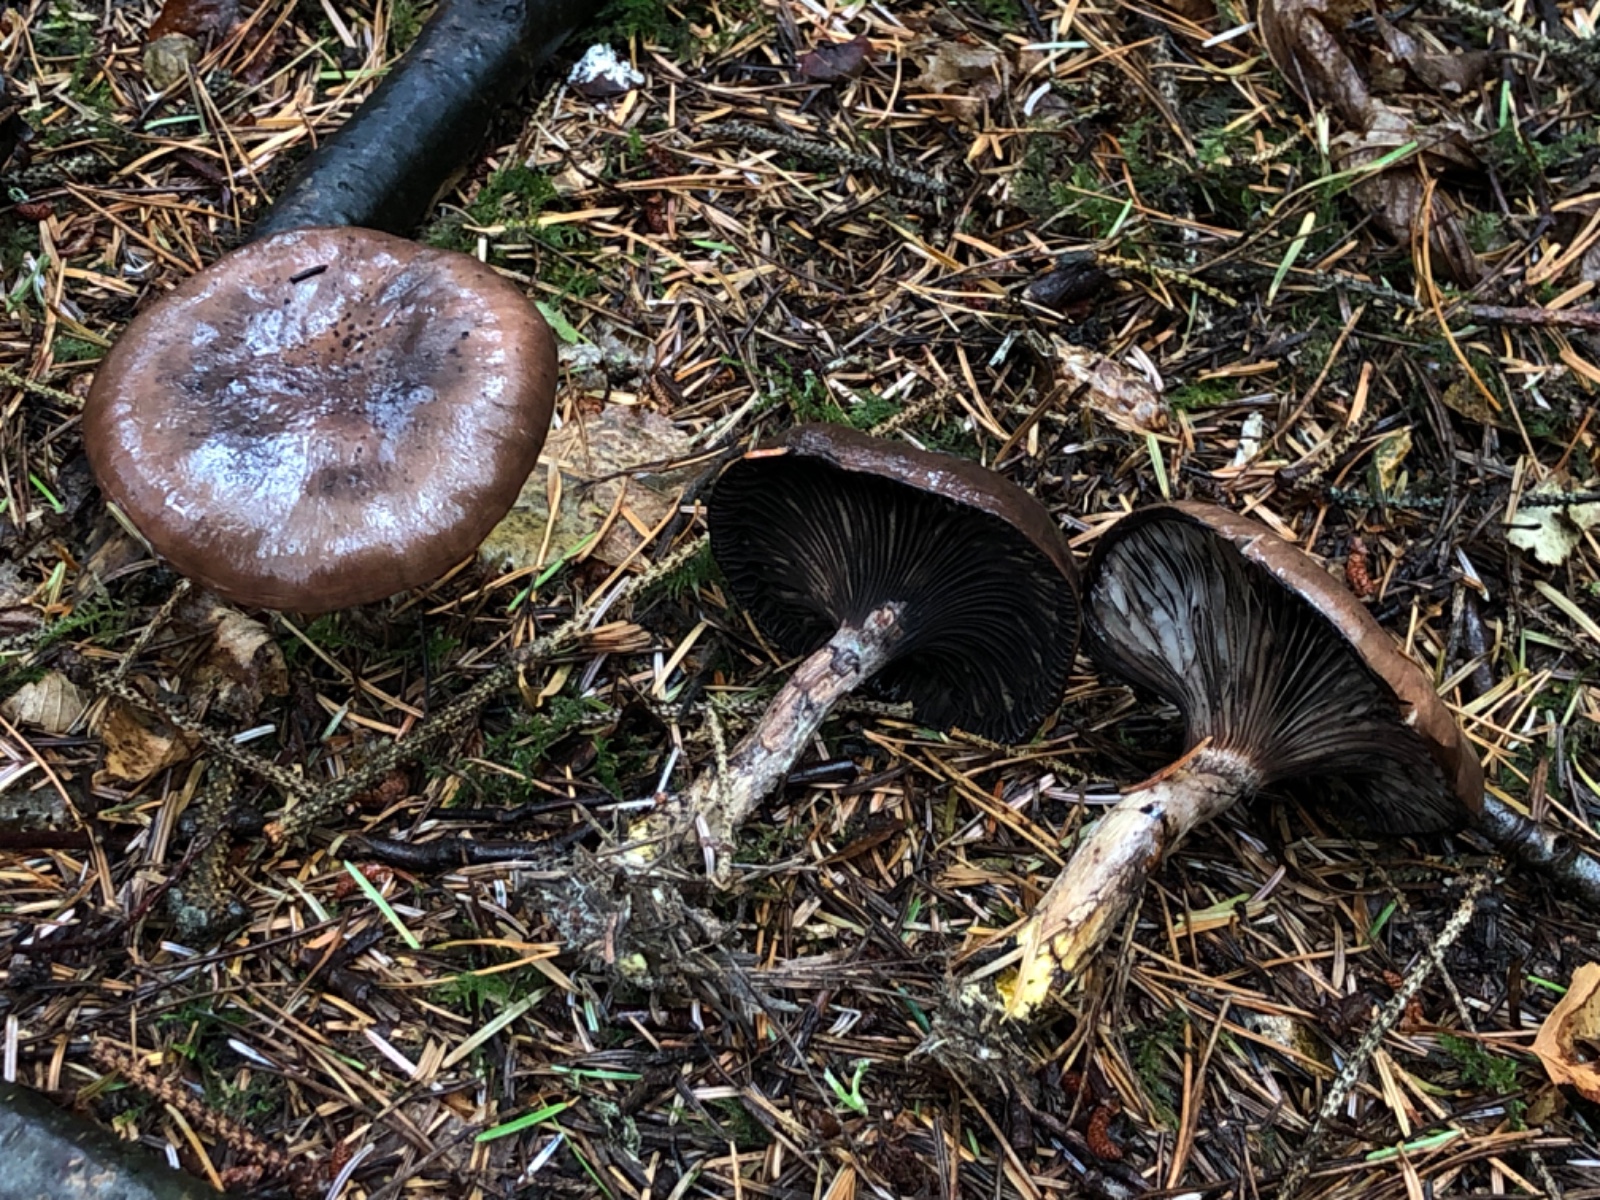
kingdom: Fungi
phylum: Basidiomycota
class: Agaricomycetes
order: Boletales
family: Gomphidiaceae
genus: Gomphidius
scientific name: Gomphidius glutinosus
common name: grå slimslør
